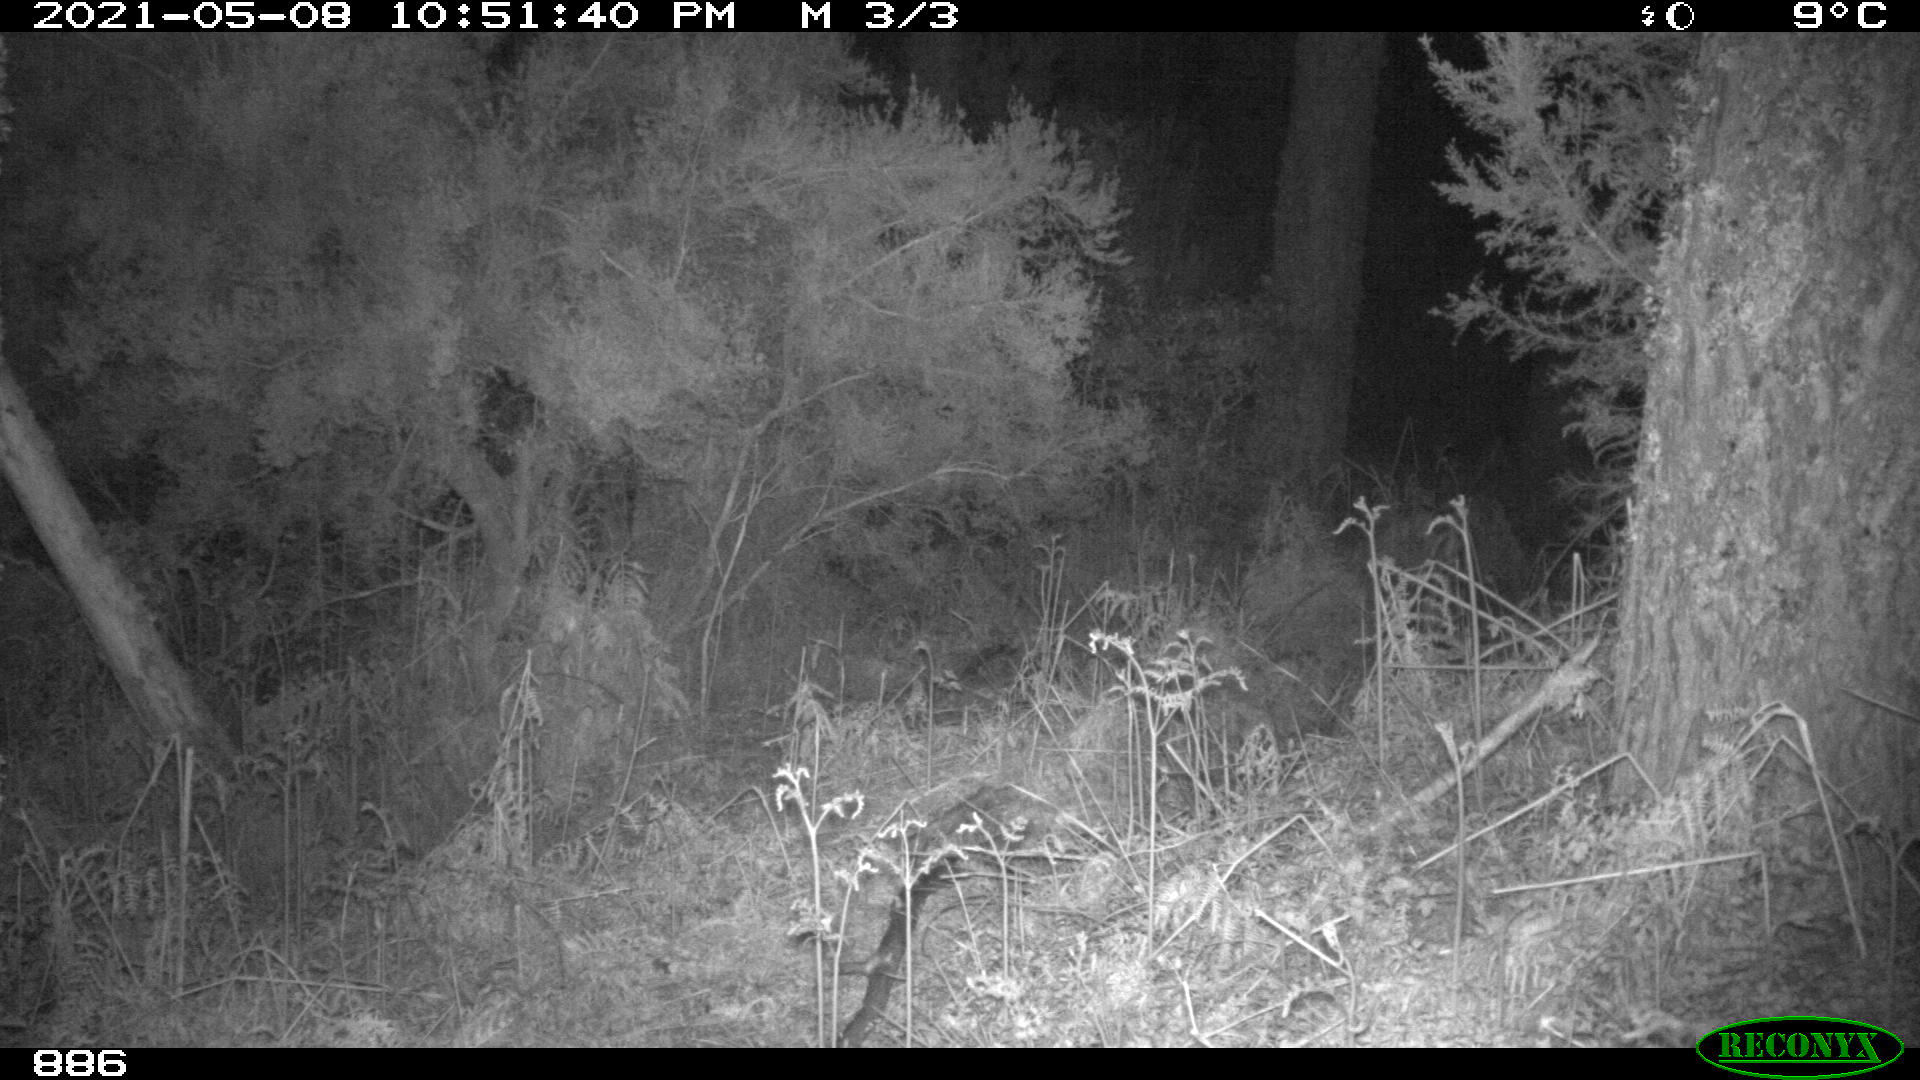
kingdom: Animalia
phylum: Chordata
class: Mammalia
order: Artiodactyla
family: Cervidae
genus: Capreolus
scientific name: Capreolus capreolus
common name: Western roe deer
